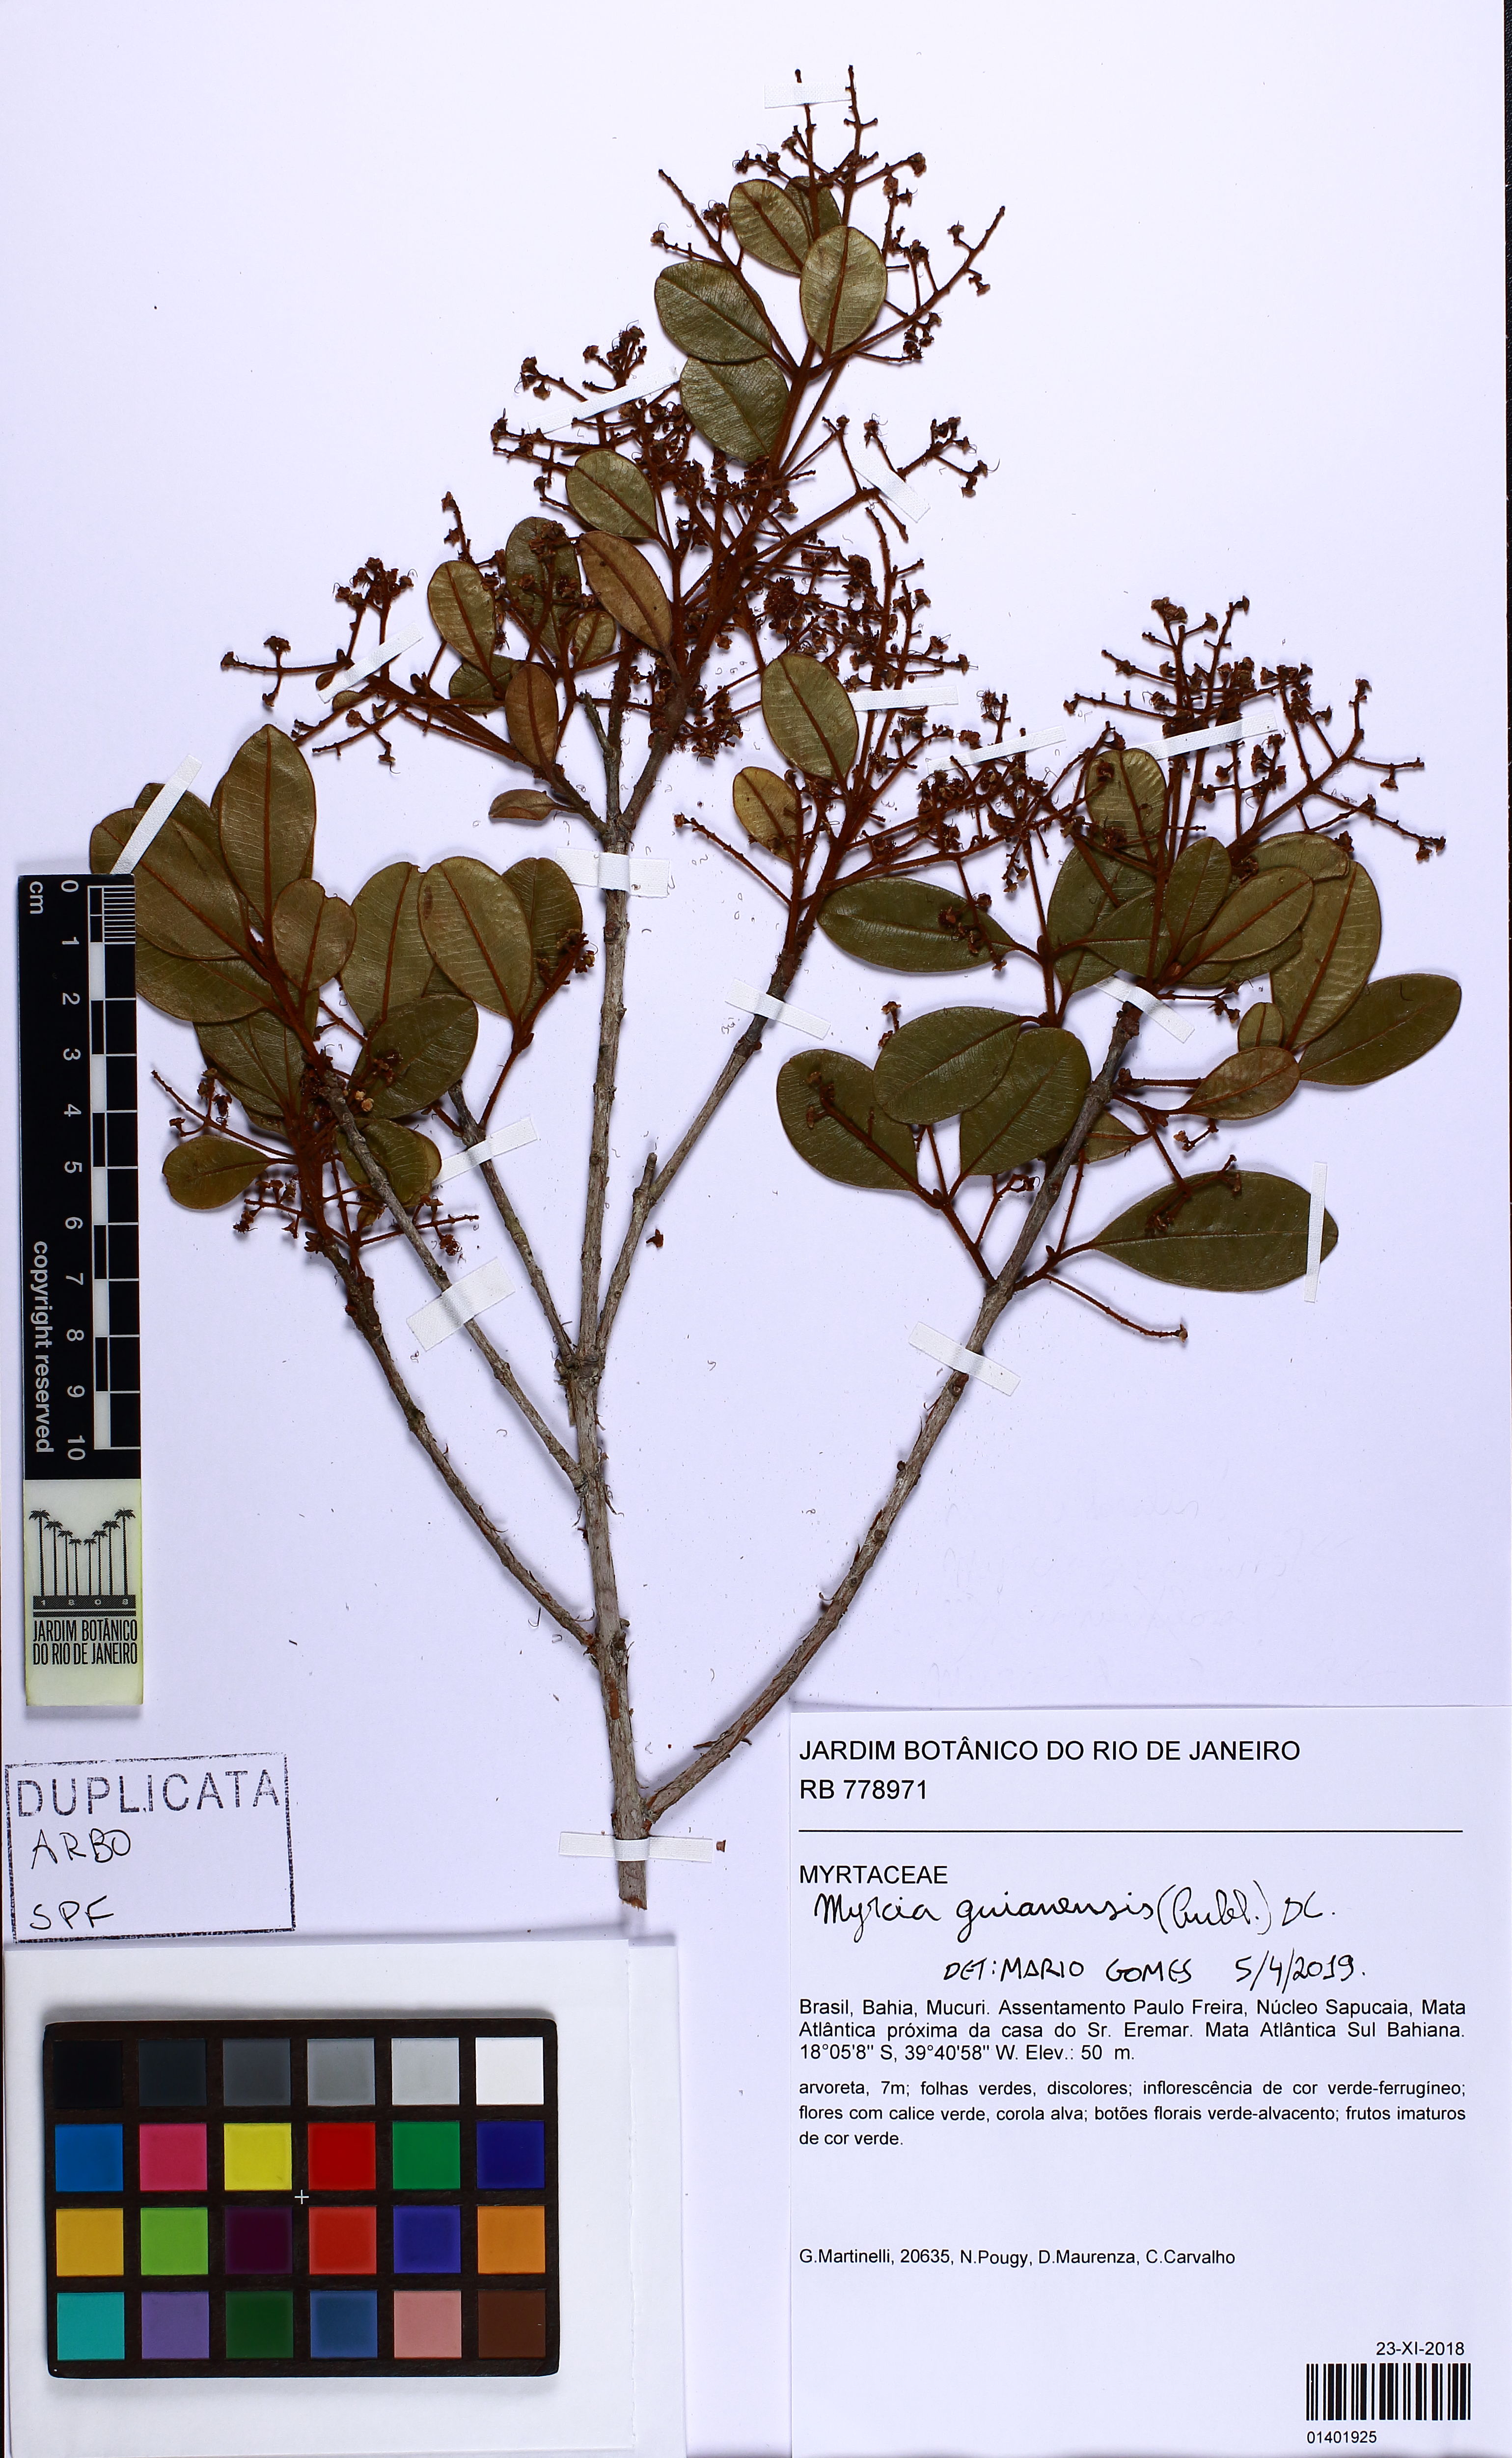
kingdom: Plantae
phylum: Tracheophyta
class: Magnoliopsida
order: Myrtales
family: Myrtaceae
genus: Myrcia
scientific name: Myrcia guianensis
